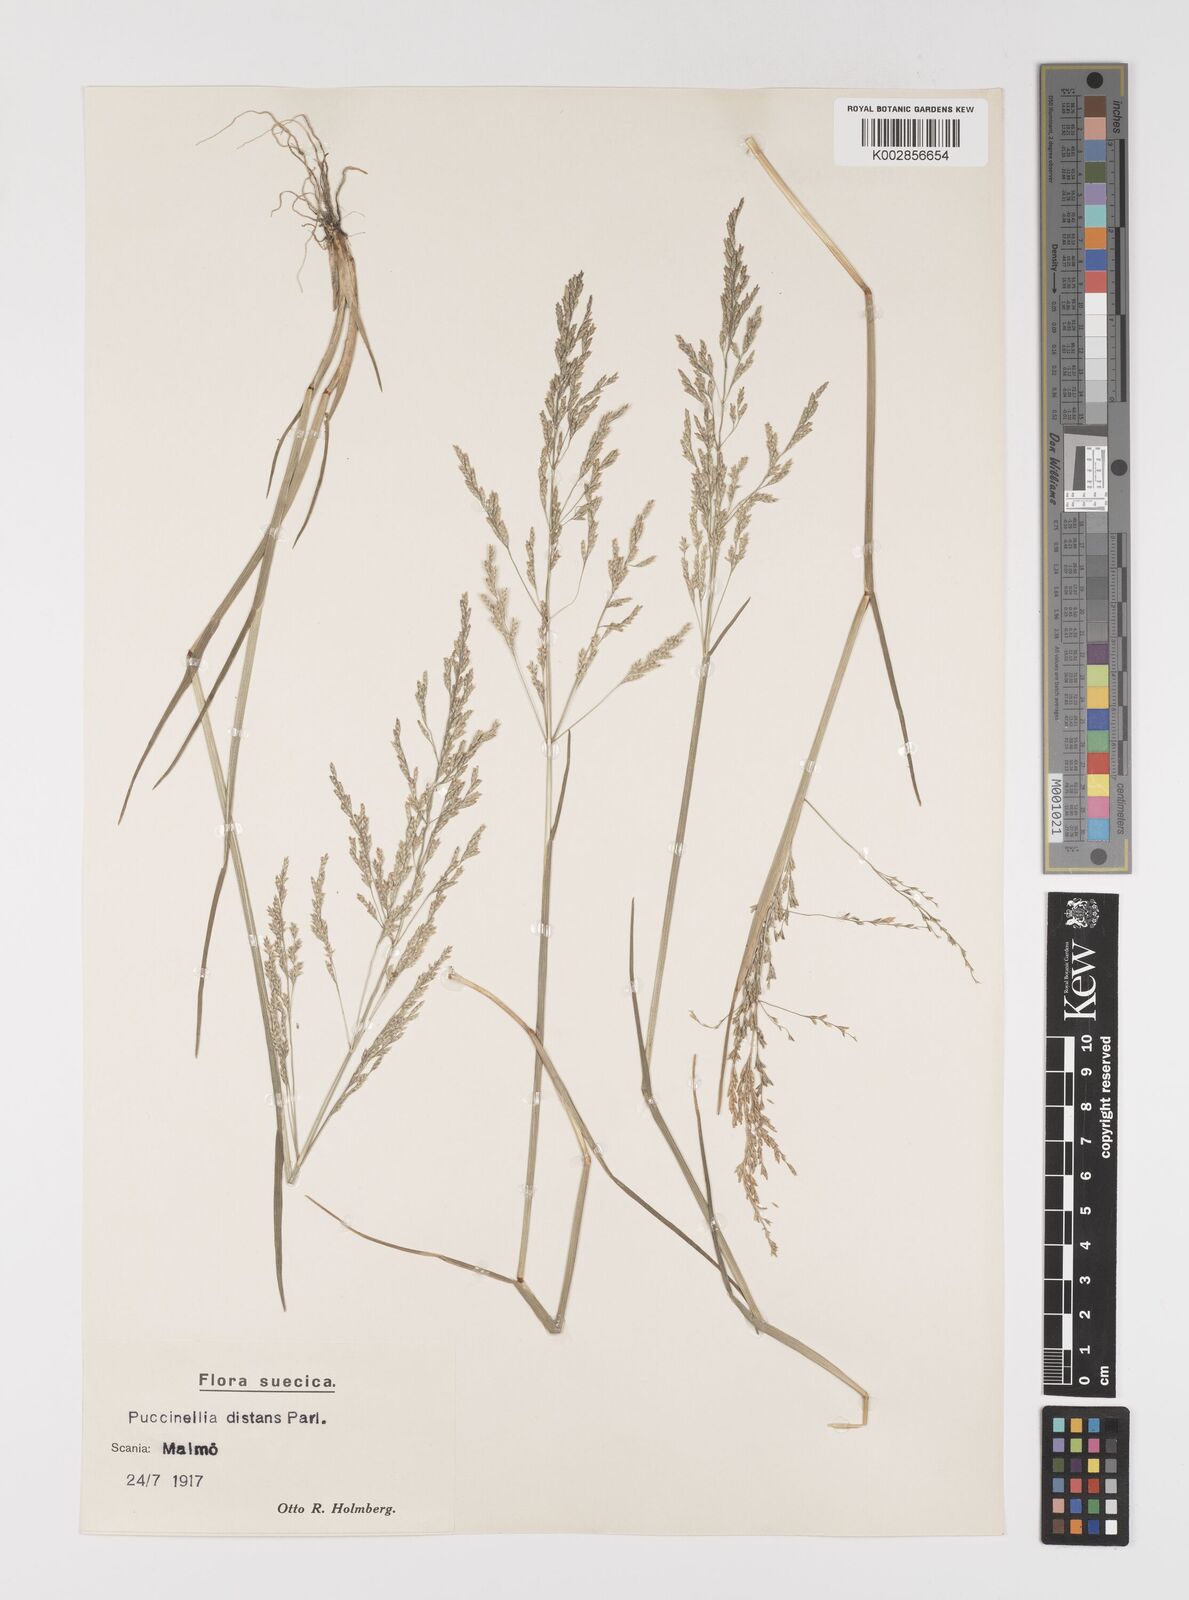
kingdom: Plantae
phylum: Tracheophyta
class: Liliopsida
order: Poales
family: Poaceae
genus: Puccinellia
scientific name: Puccinellia
